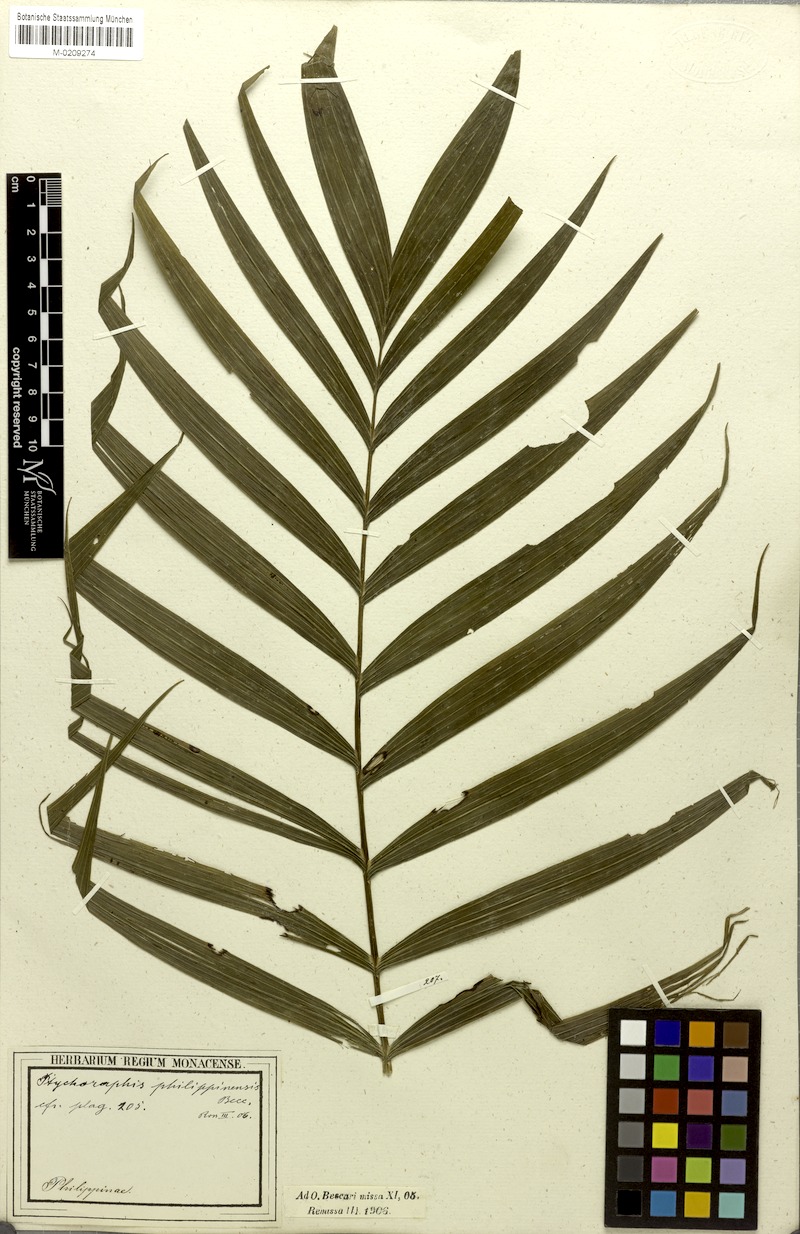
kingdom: Plantae
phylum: Tracheophyta
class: Liliopsida
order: Arecales
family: Arecaceae
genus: Heterospathe
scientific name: Heterospathe philippinensis
